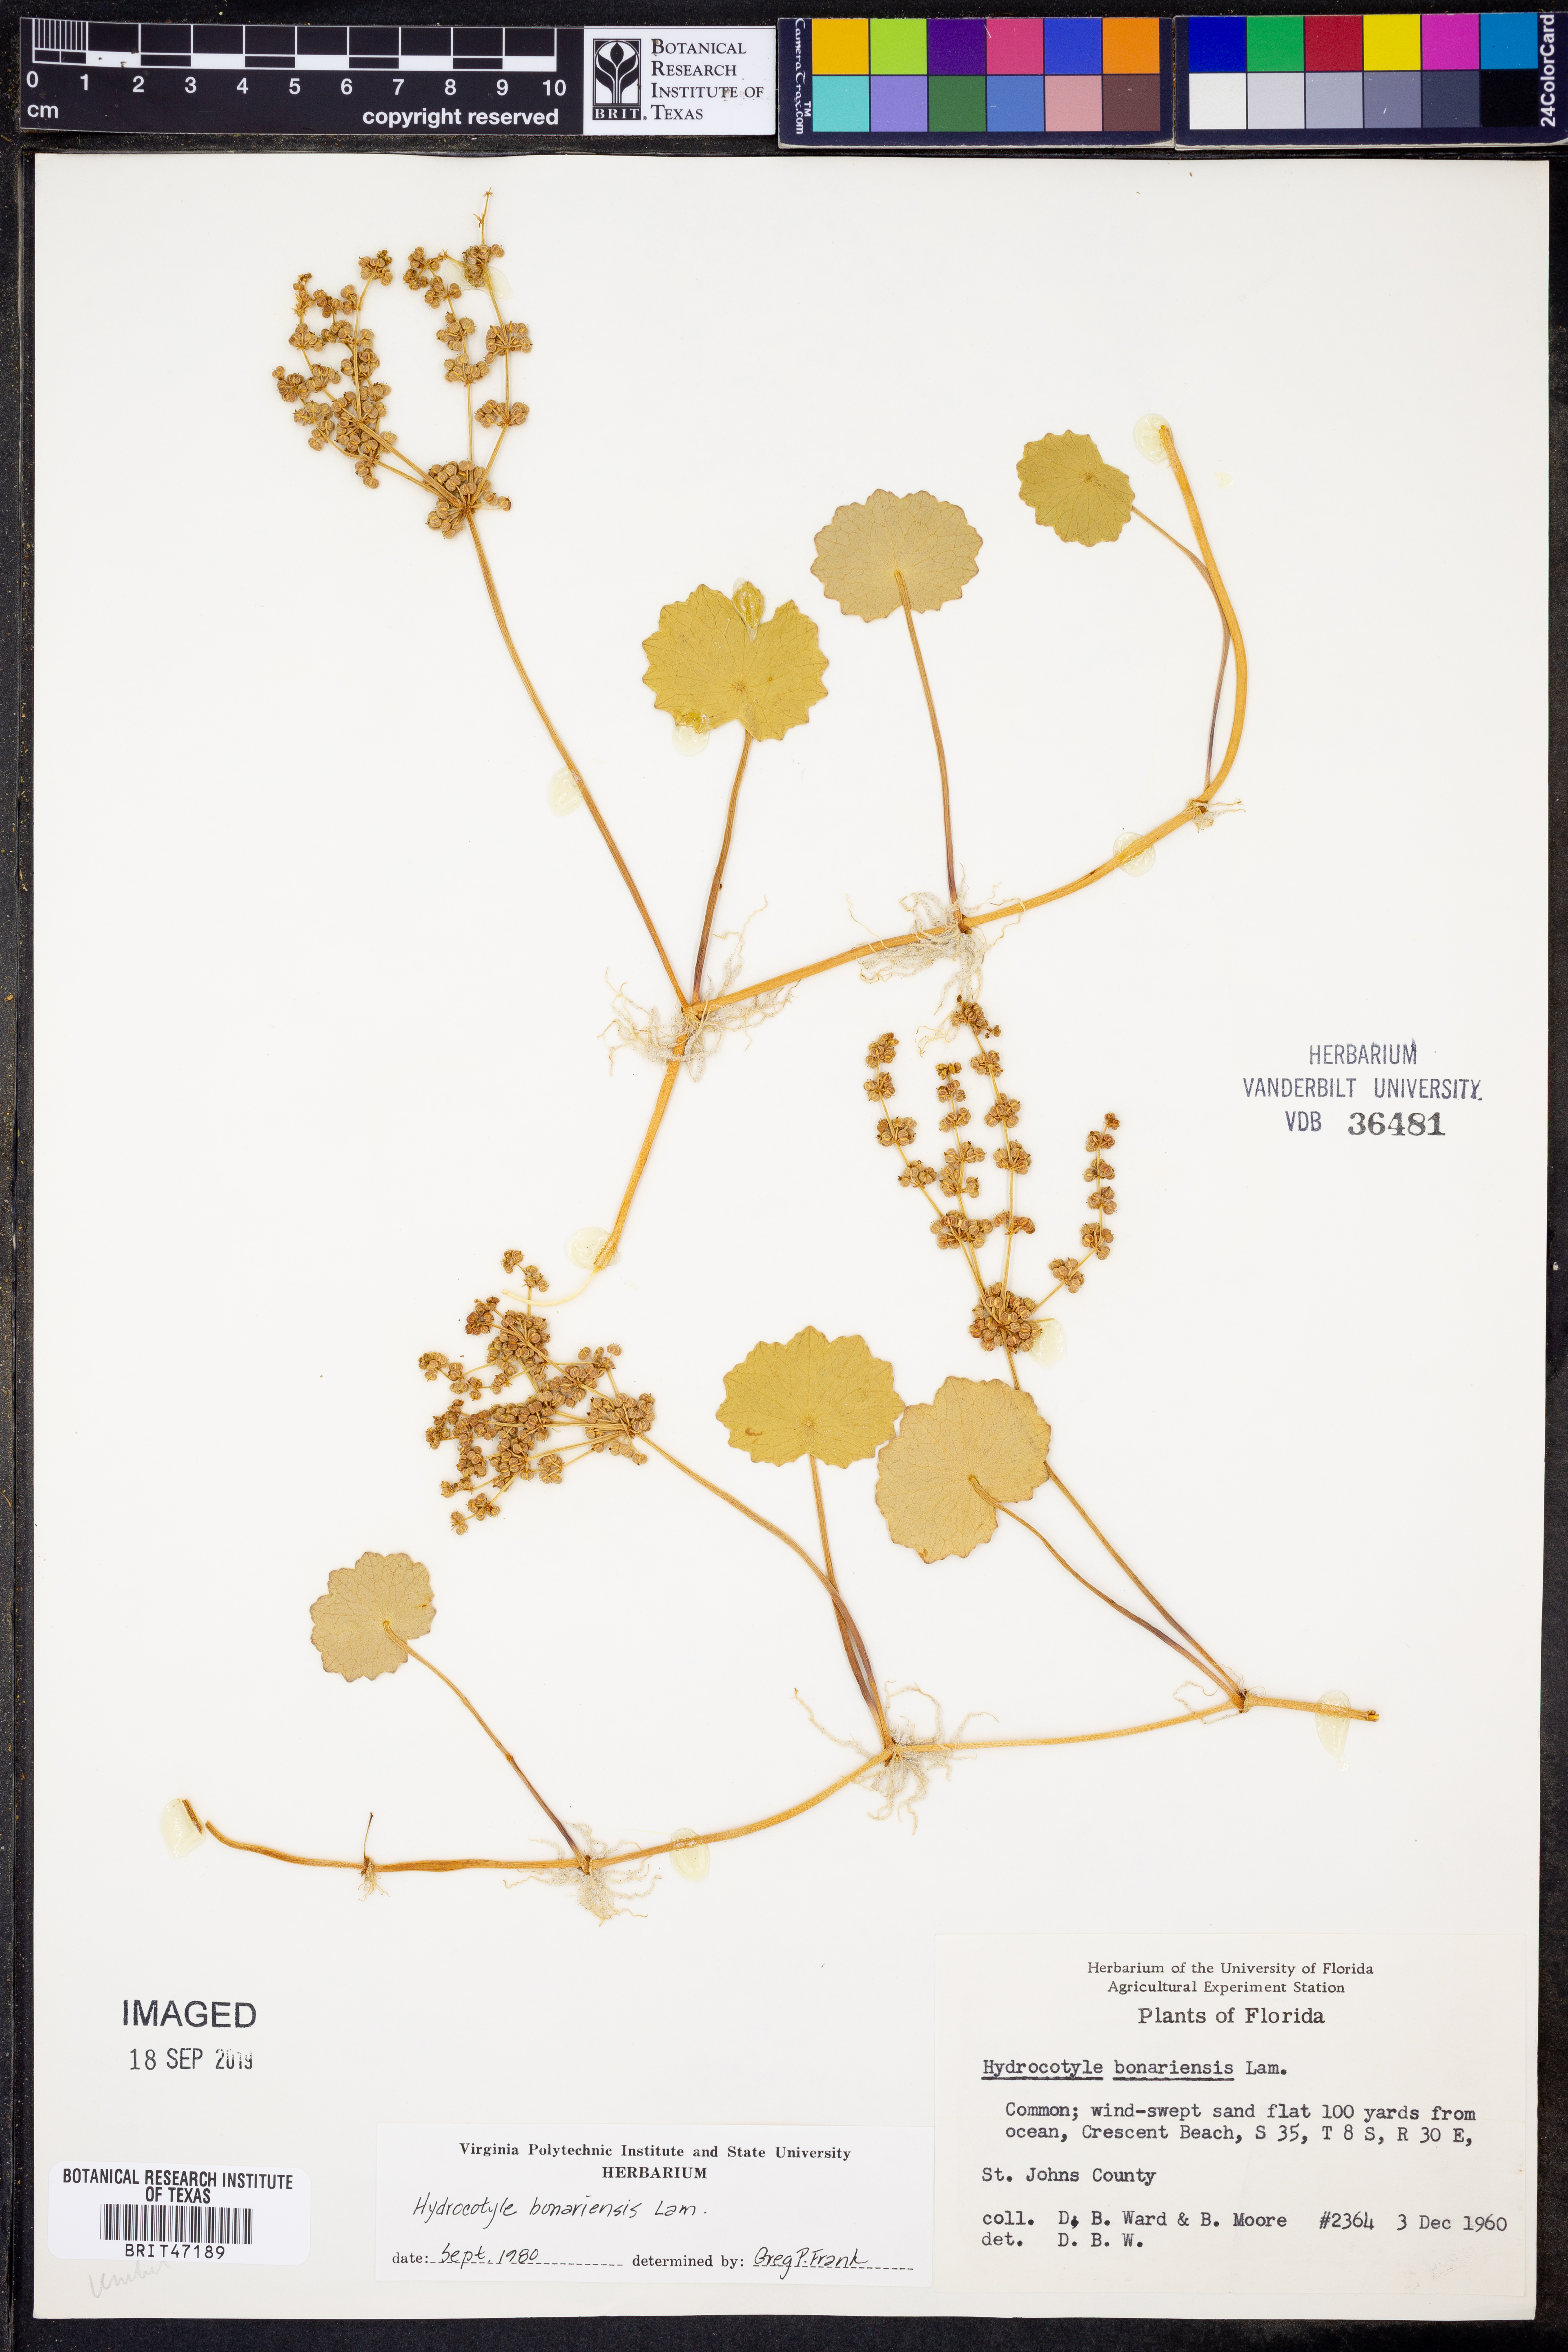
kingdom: Plantae
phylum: Tracheophyta
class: Magnoliopsida
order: Apiales
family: Araliaceae
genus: Hydrocotyle
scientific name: Hydrocotyle bonariensis
